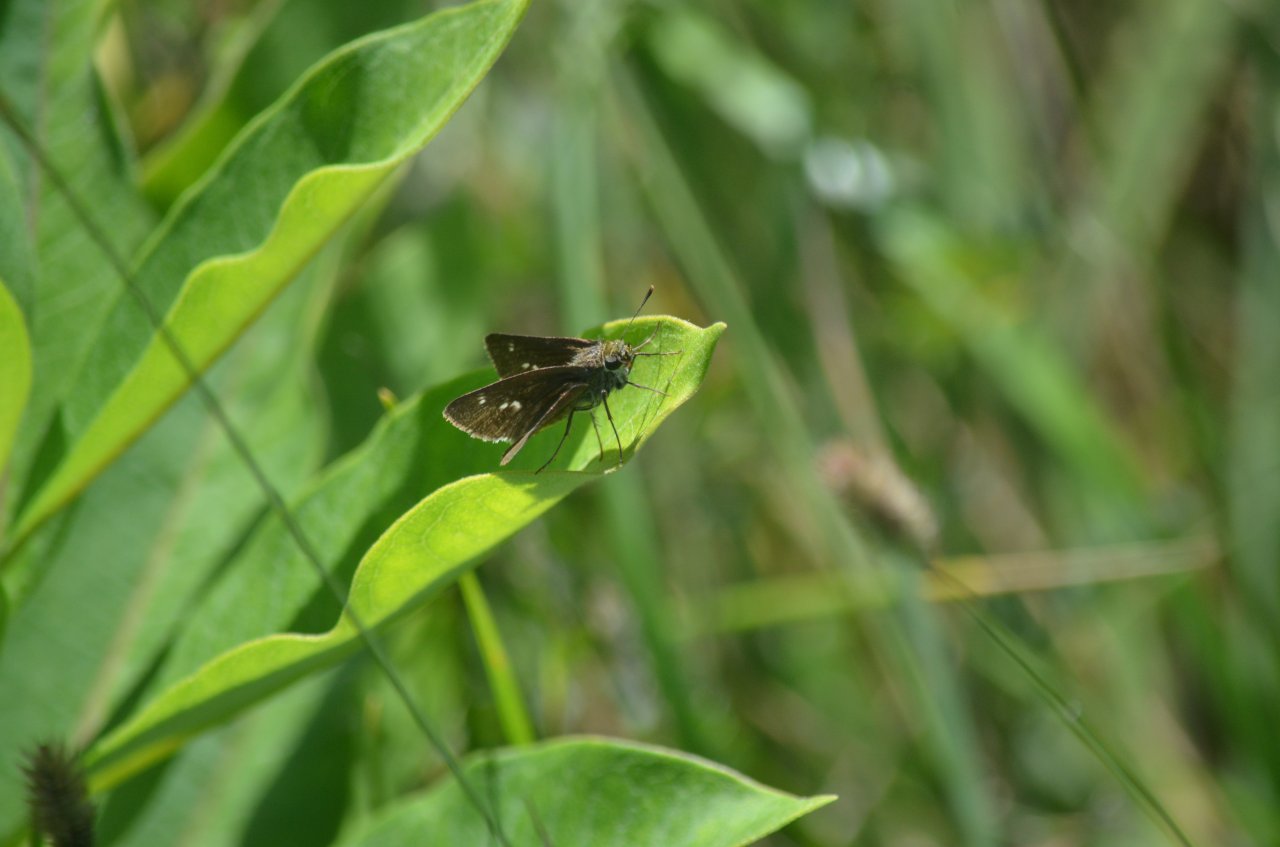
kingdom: Animalia
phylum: Arthropoda
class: Insecta
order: Lepidoptera
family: Hesperiidae
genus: Euphyes
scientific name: Euphyes vestris
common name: Dun Skipper
